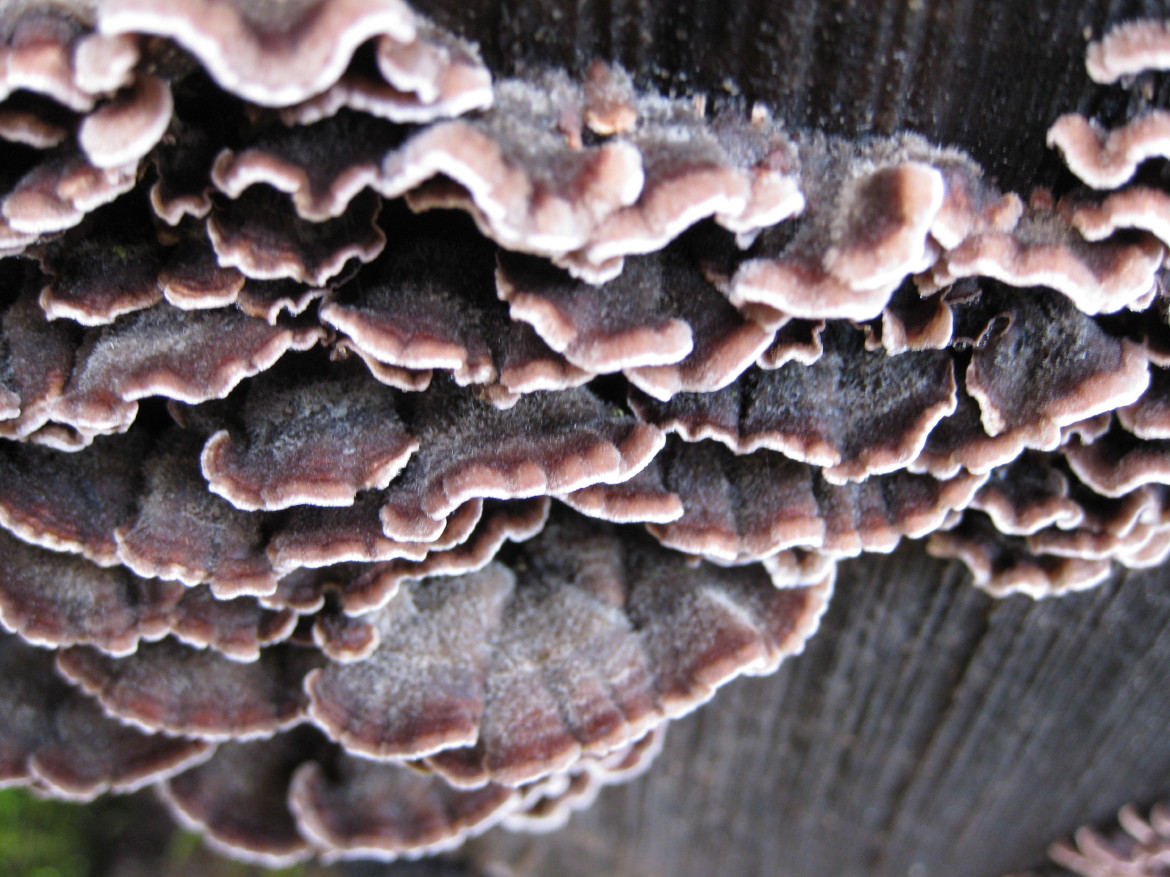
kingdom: Fungi
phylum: Basidiomycota
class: Agaricomycetes
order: Agaricales
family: Cyphellaceae
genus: Chondrostereum
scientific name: Chondrostereum purpureum
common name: purpurlædersvamp
